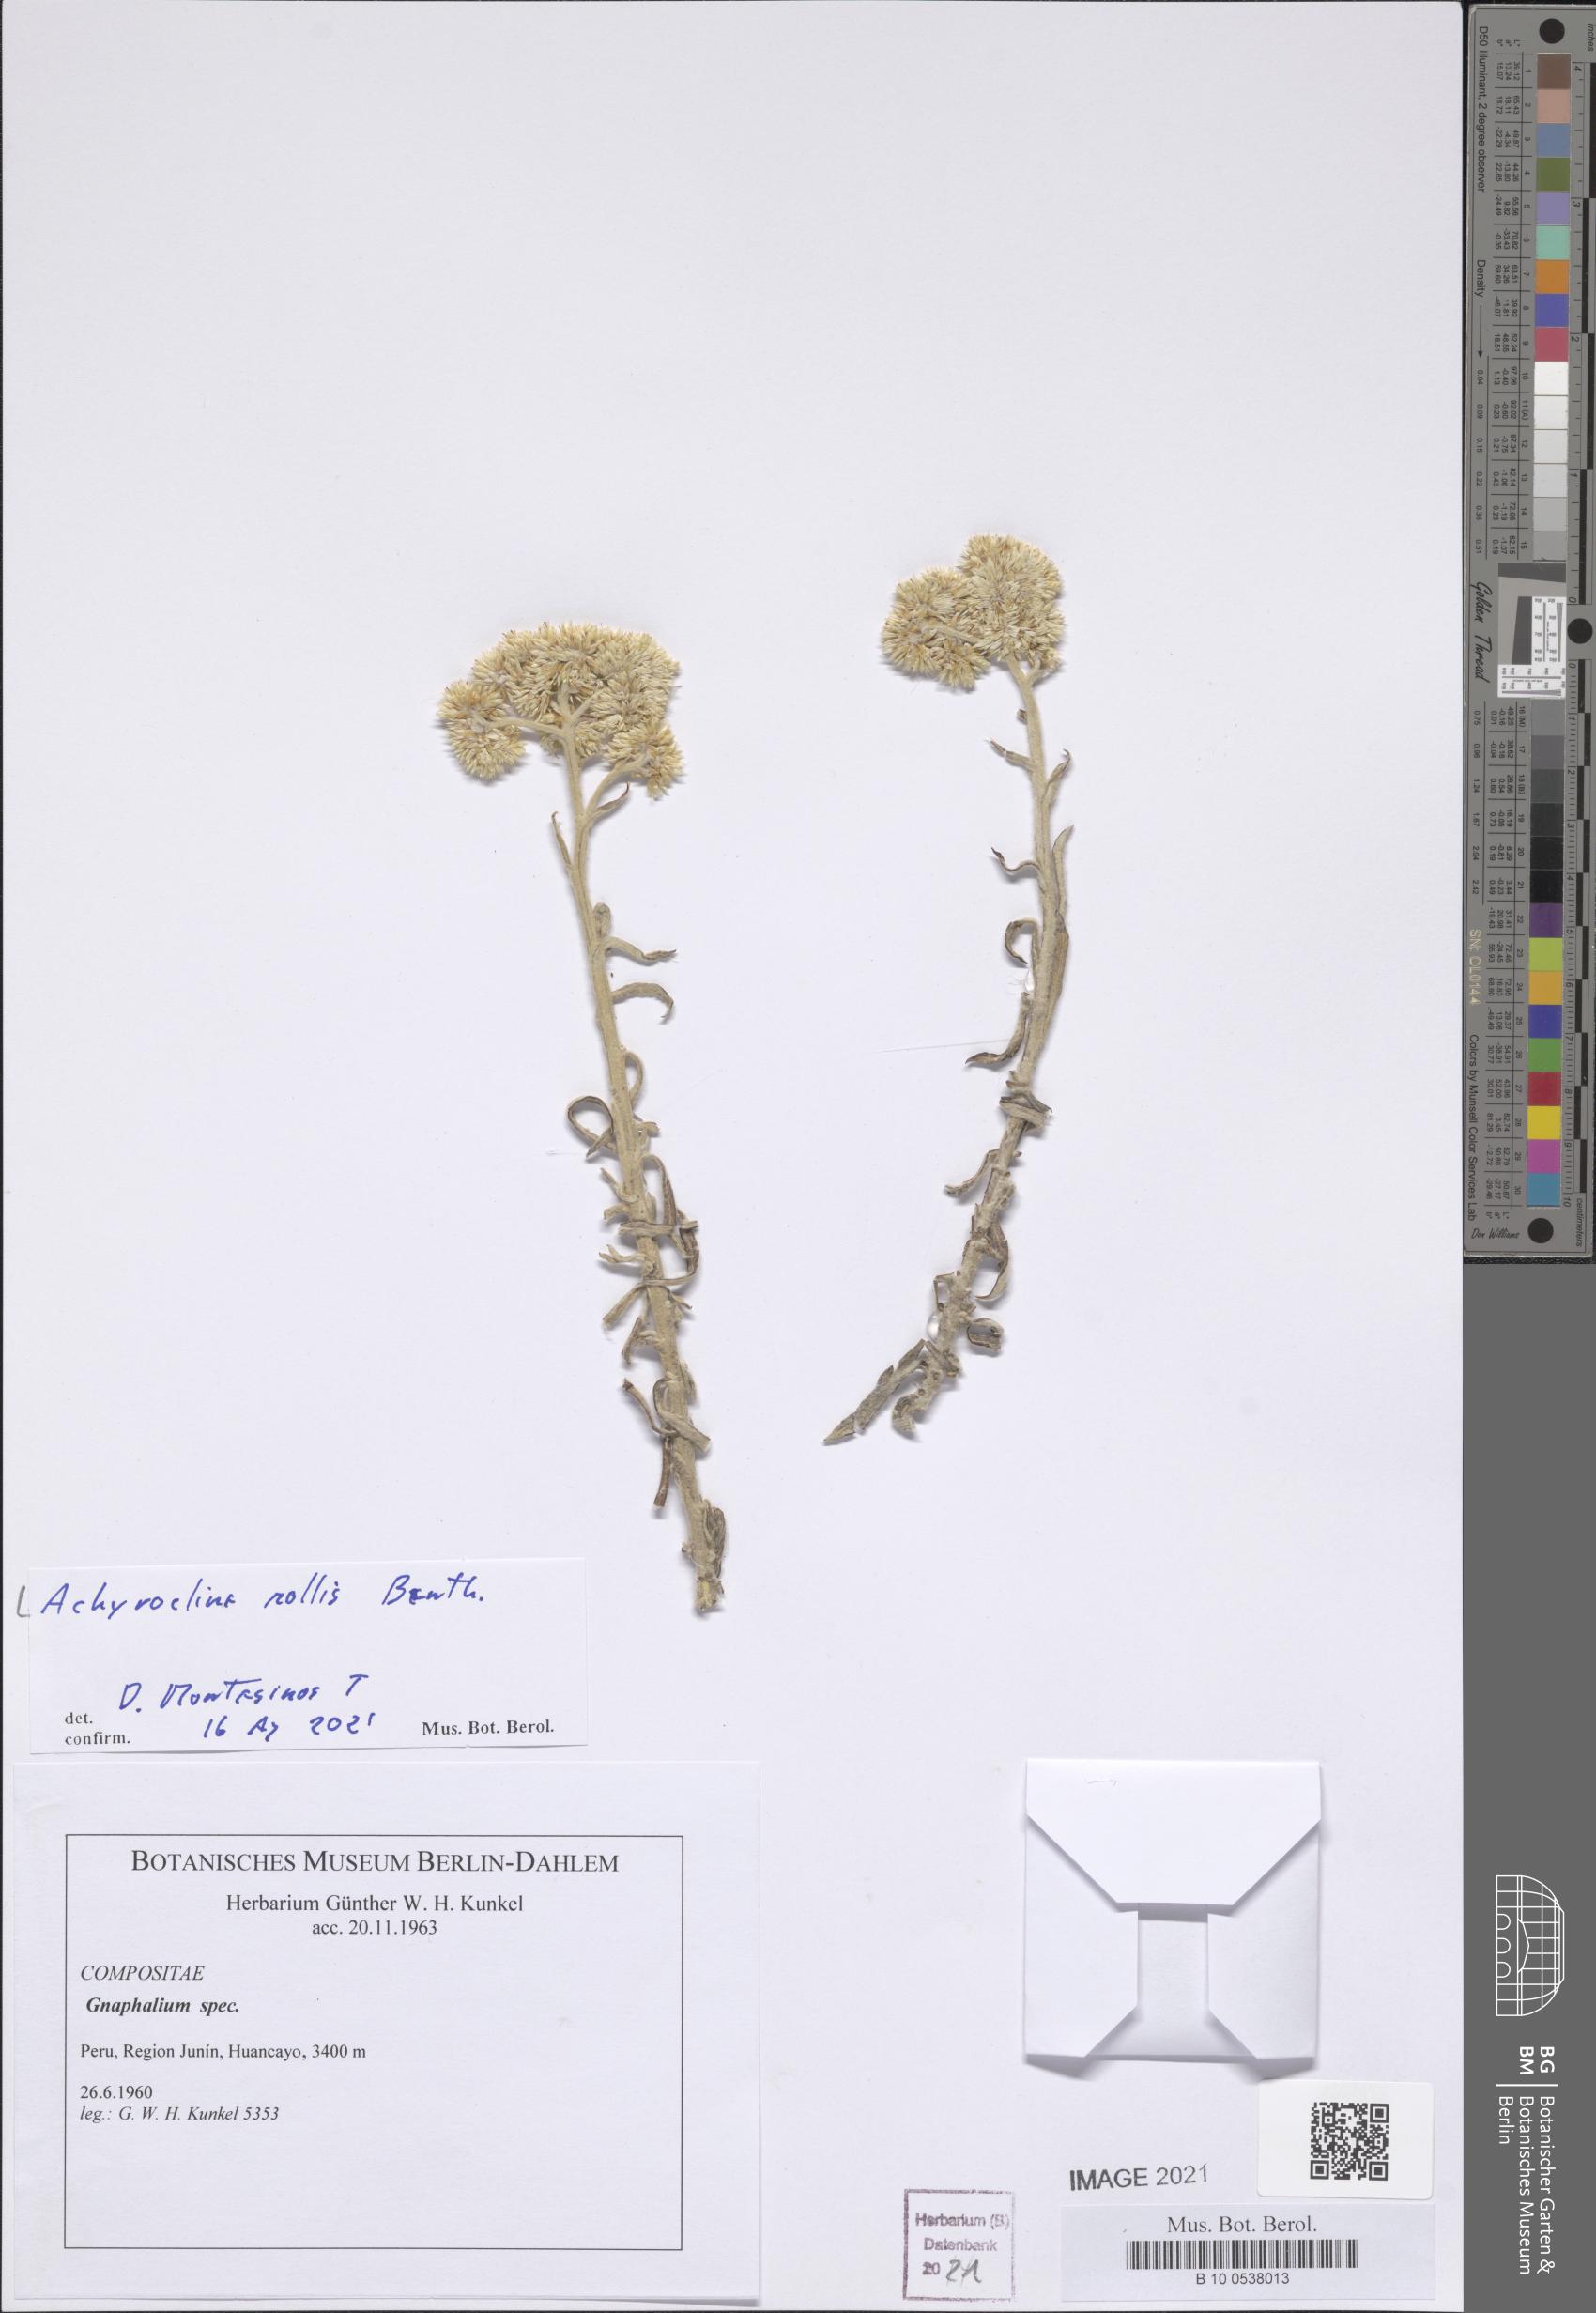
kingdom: Plantae
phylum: Tracheophyta
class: Magnoliopsida
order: Asterales
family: Asteraceae
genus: Achyrocline
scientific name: Achyrocline mollis
